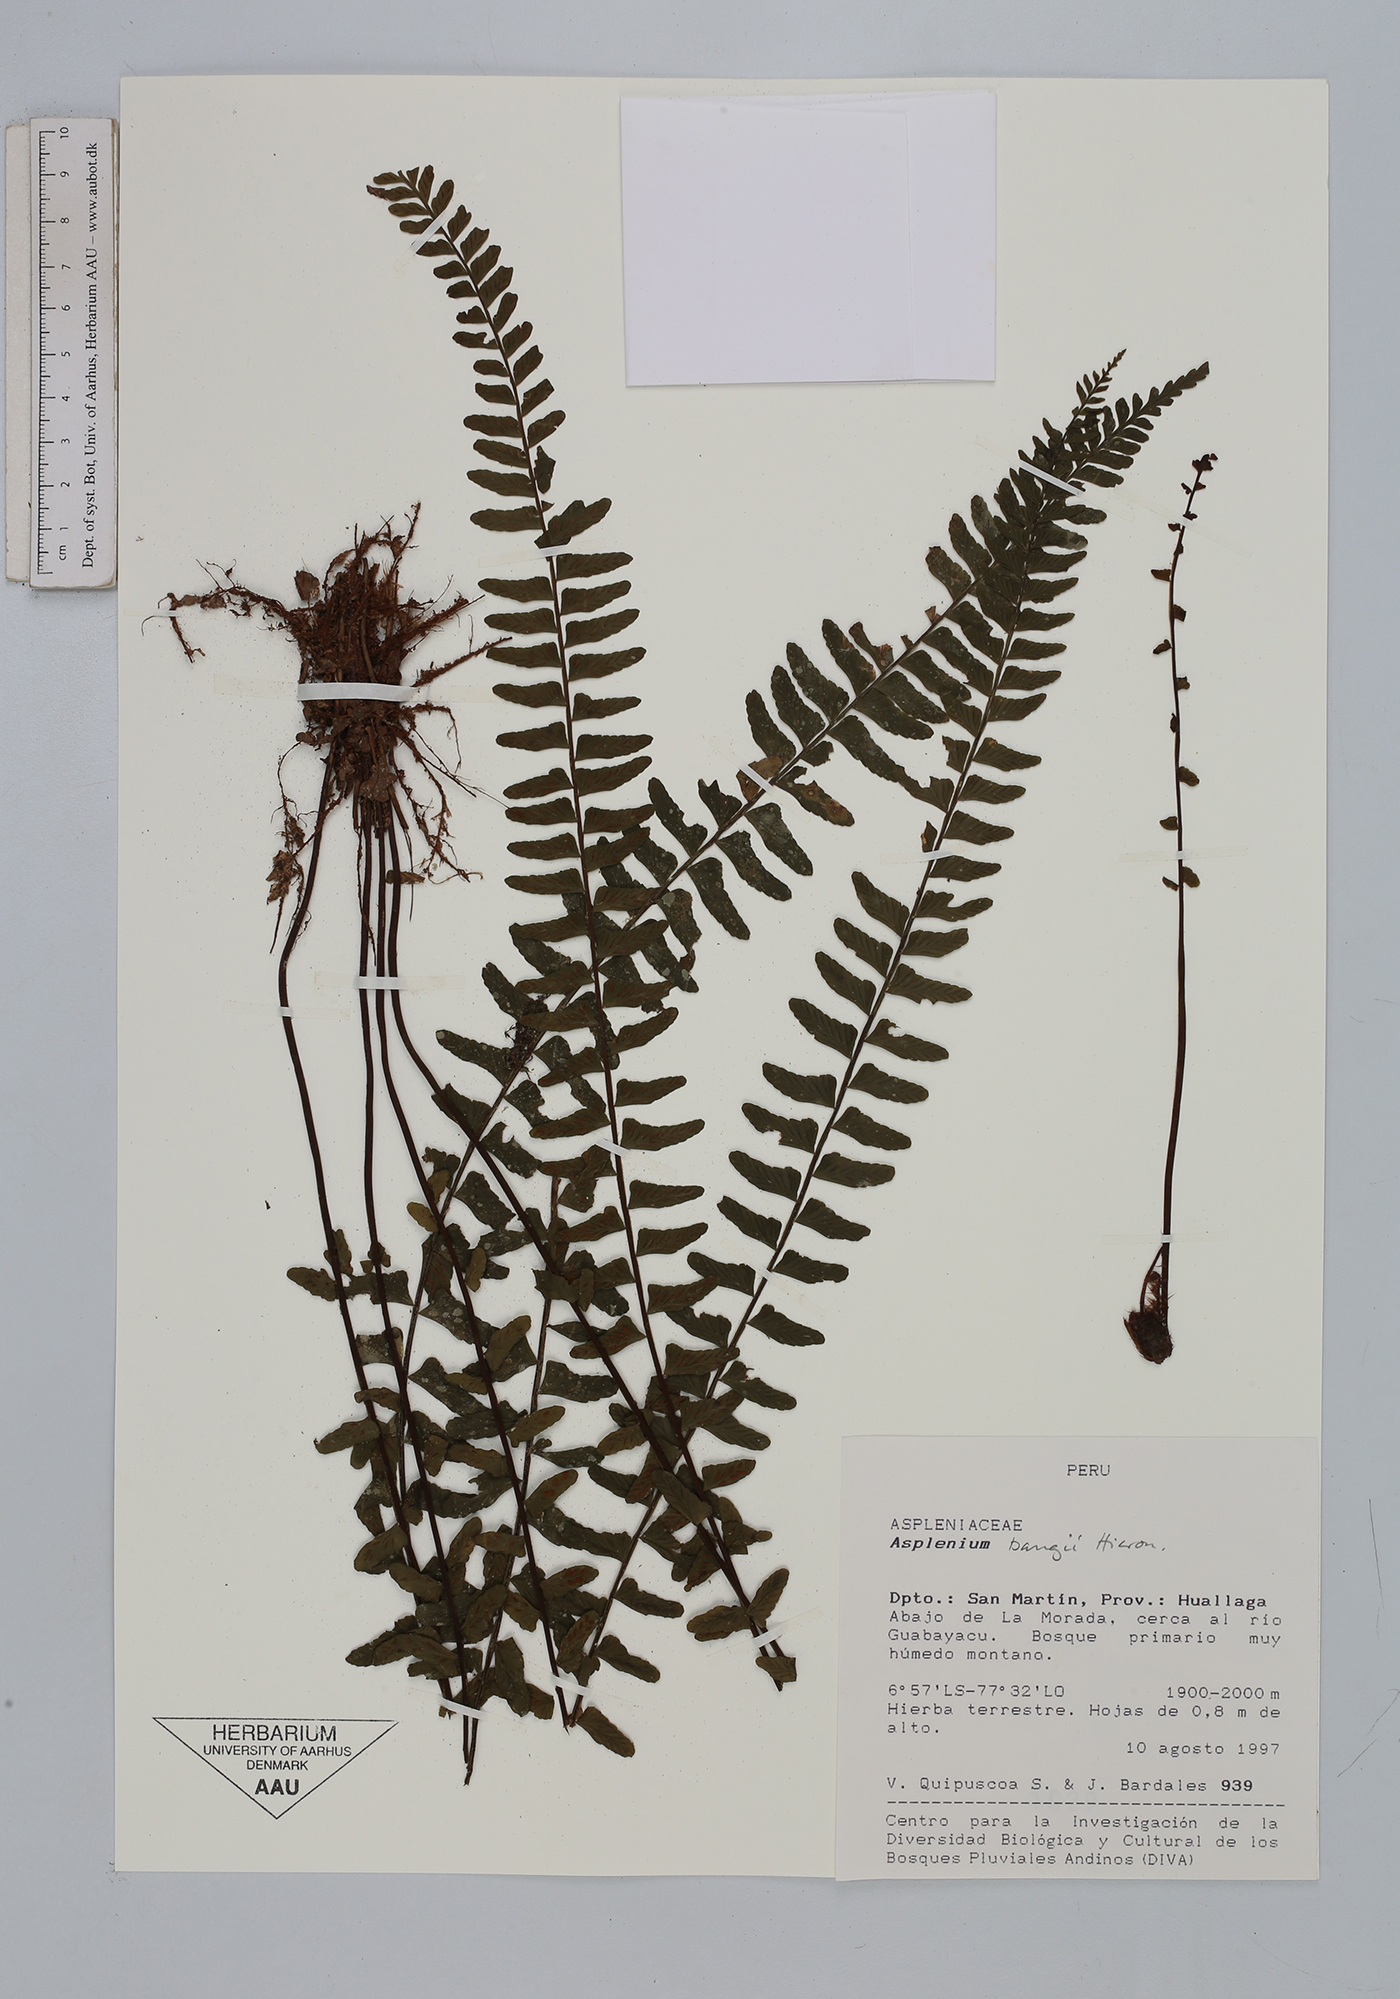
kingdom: Plantae
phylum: Tracheophyta
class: Polypodiopsida
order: Polypodiales
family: Aspleniaceae
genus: Asplenium
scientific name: Asplenium bangii
